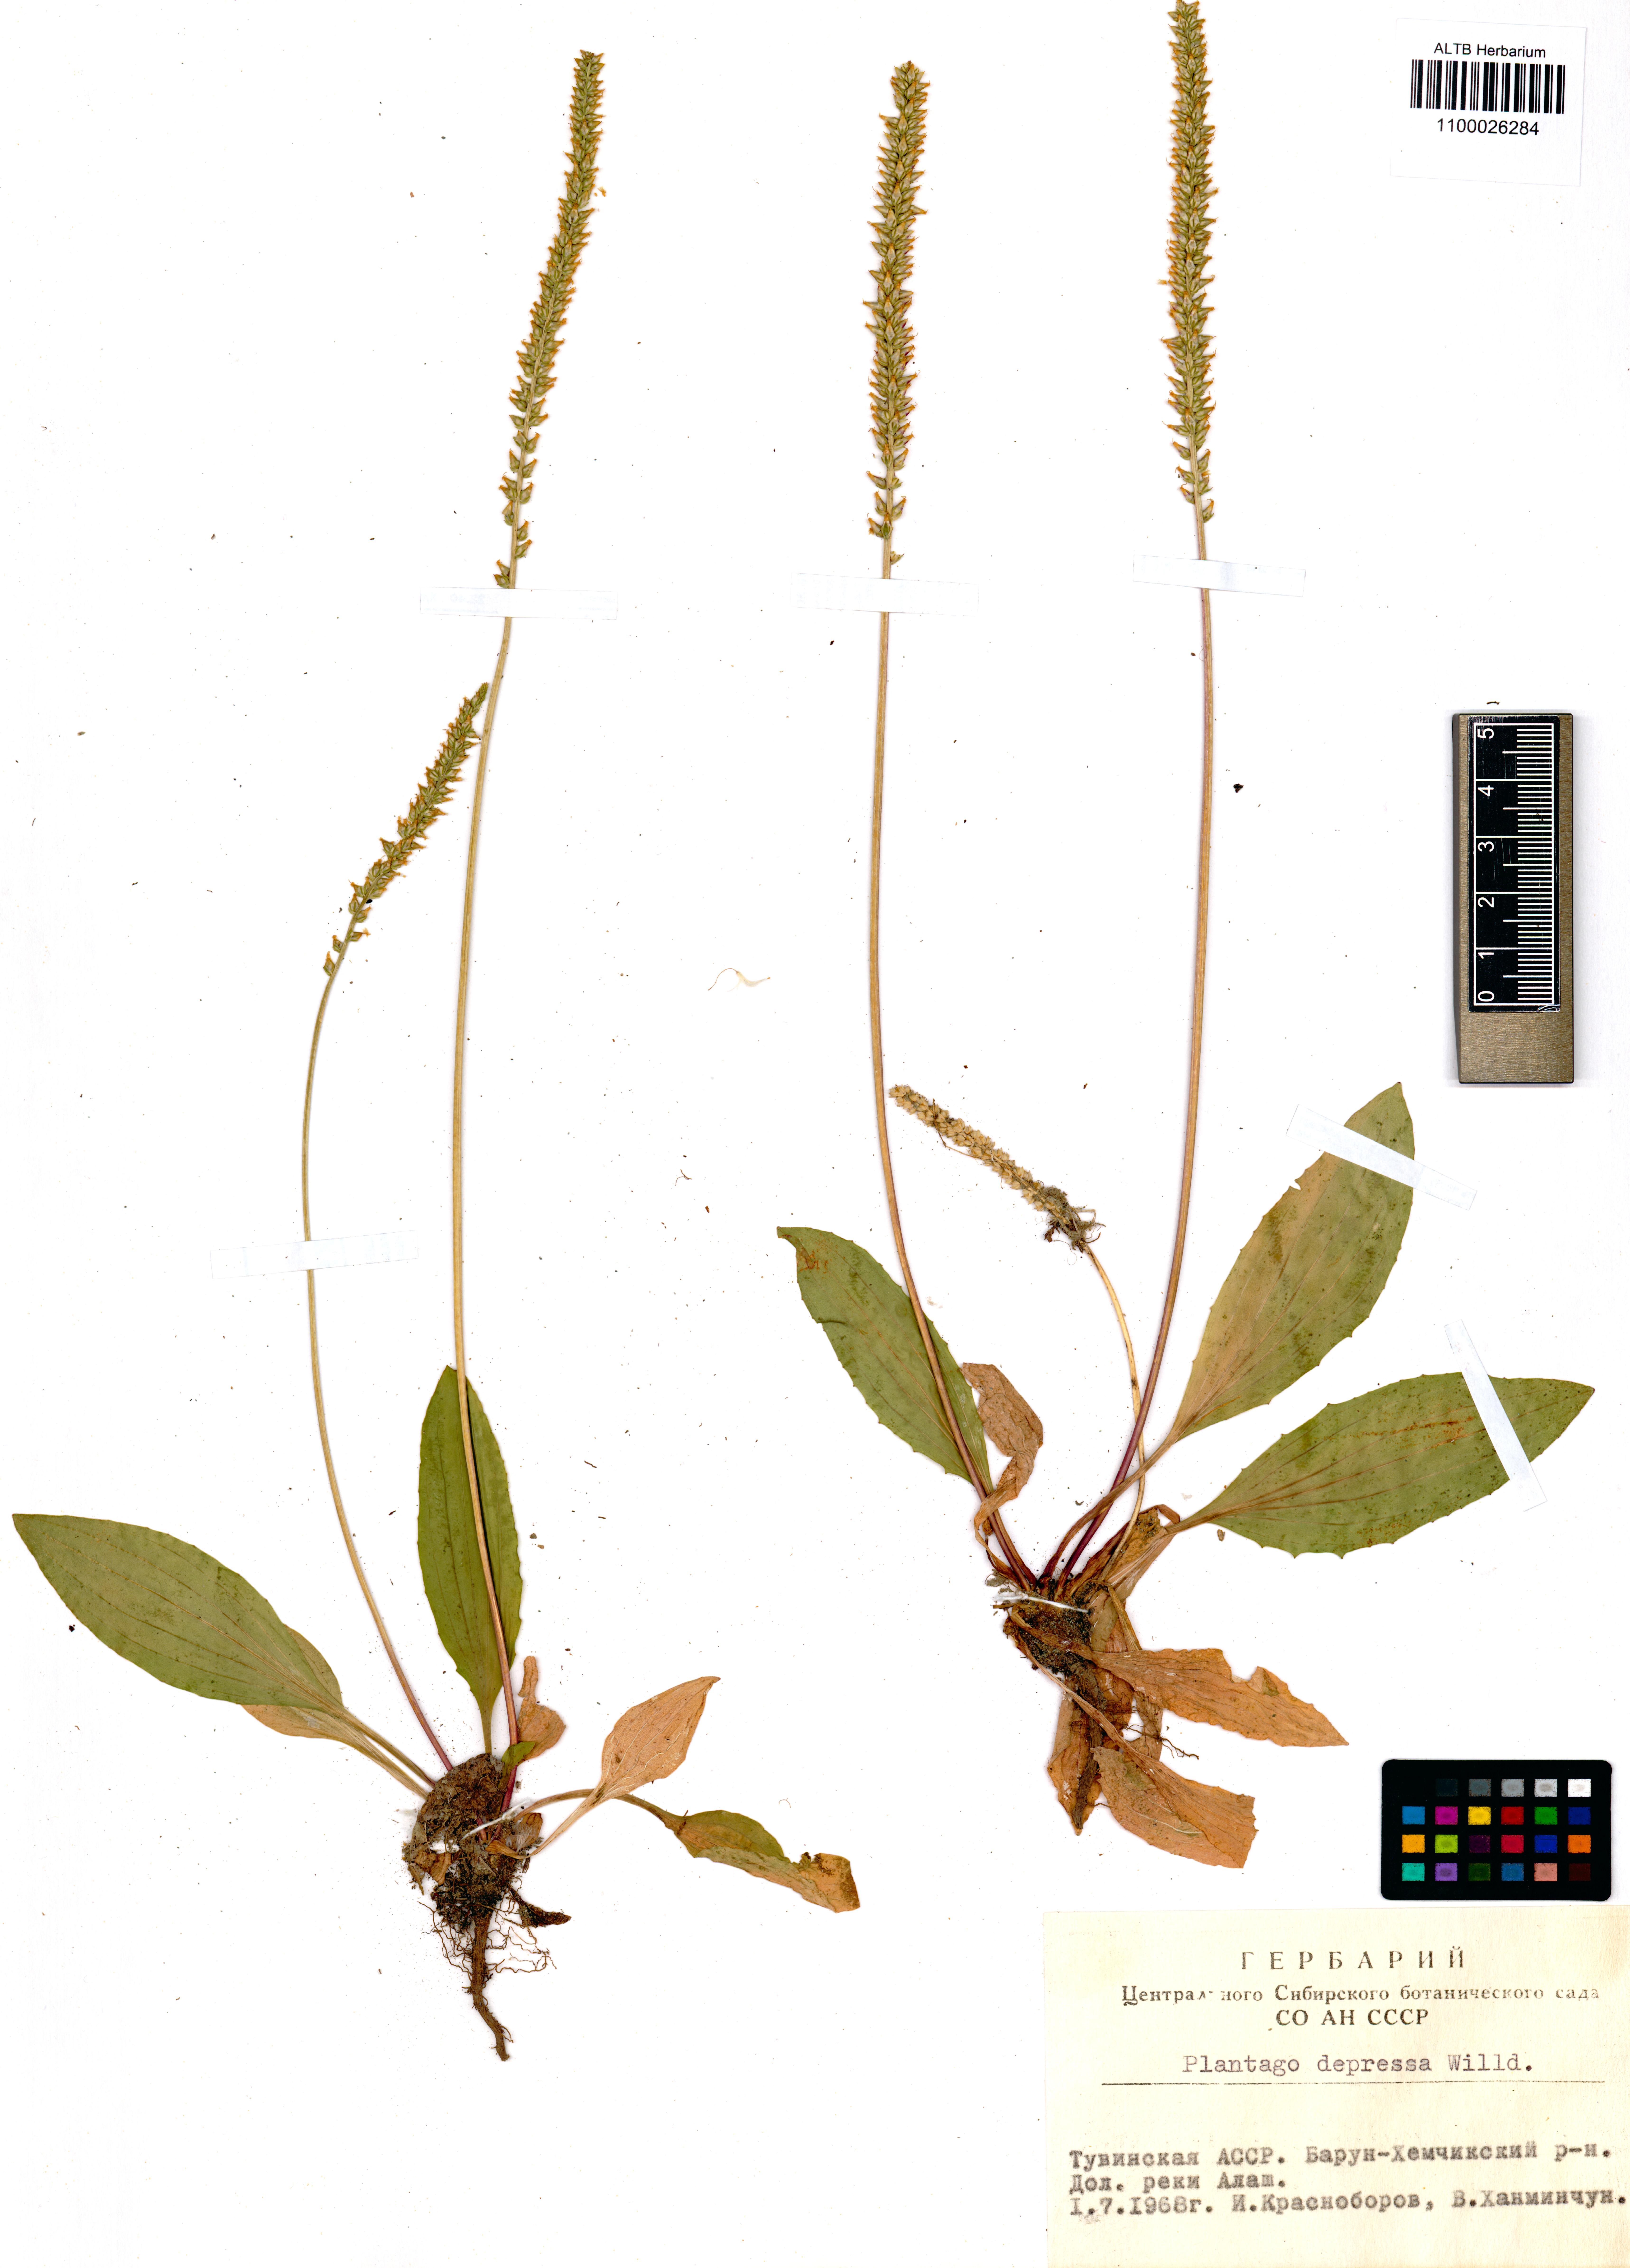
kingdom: Plantae
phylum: Tracheophyta
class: Magnoliopsida
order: Lamiales
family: Plantaginaceae
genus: Plantago
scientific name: Plantago depressa
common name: Depressed plantain
